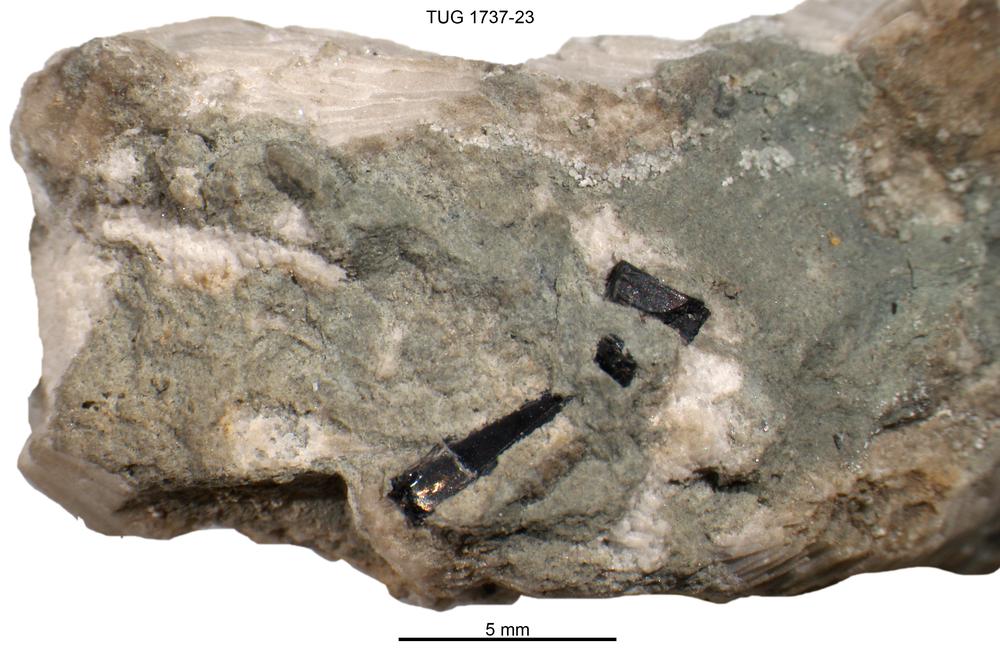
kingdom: Animalia
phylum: Cnidaria
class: Scyphozoa
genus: Sphenothallus
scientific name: Sphenothallus
